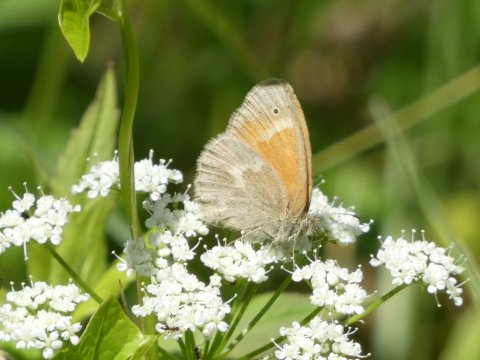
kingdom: Animalia
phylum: Arthropoda
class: Insecta
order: Lepidoptera
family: Nymphalidae
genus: Coenonympha
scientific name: Coenonympha tullia
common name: Large Heath
